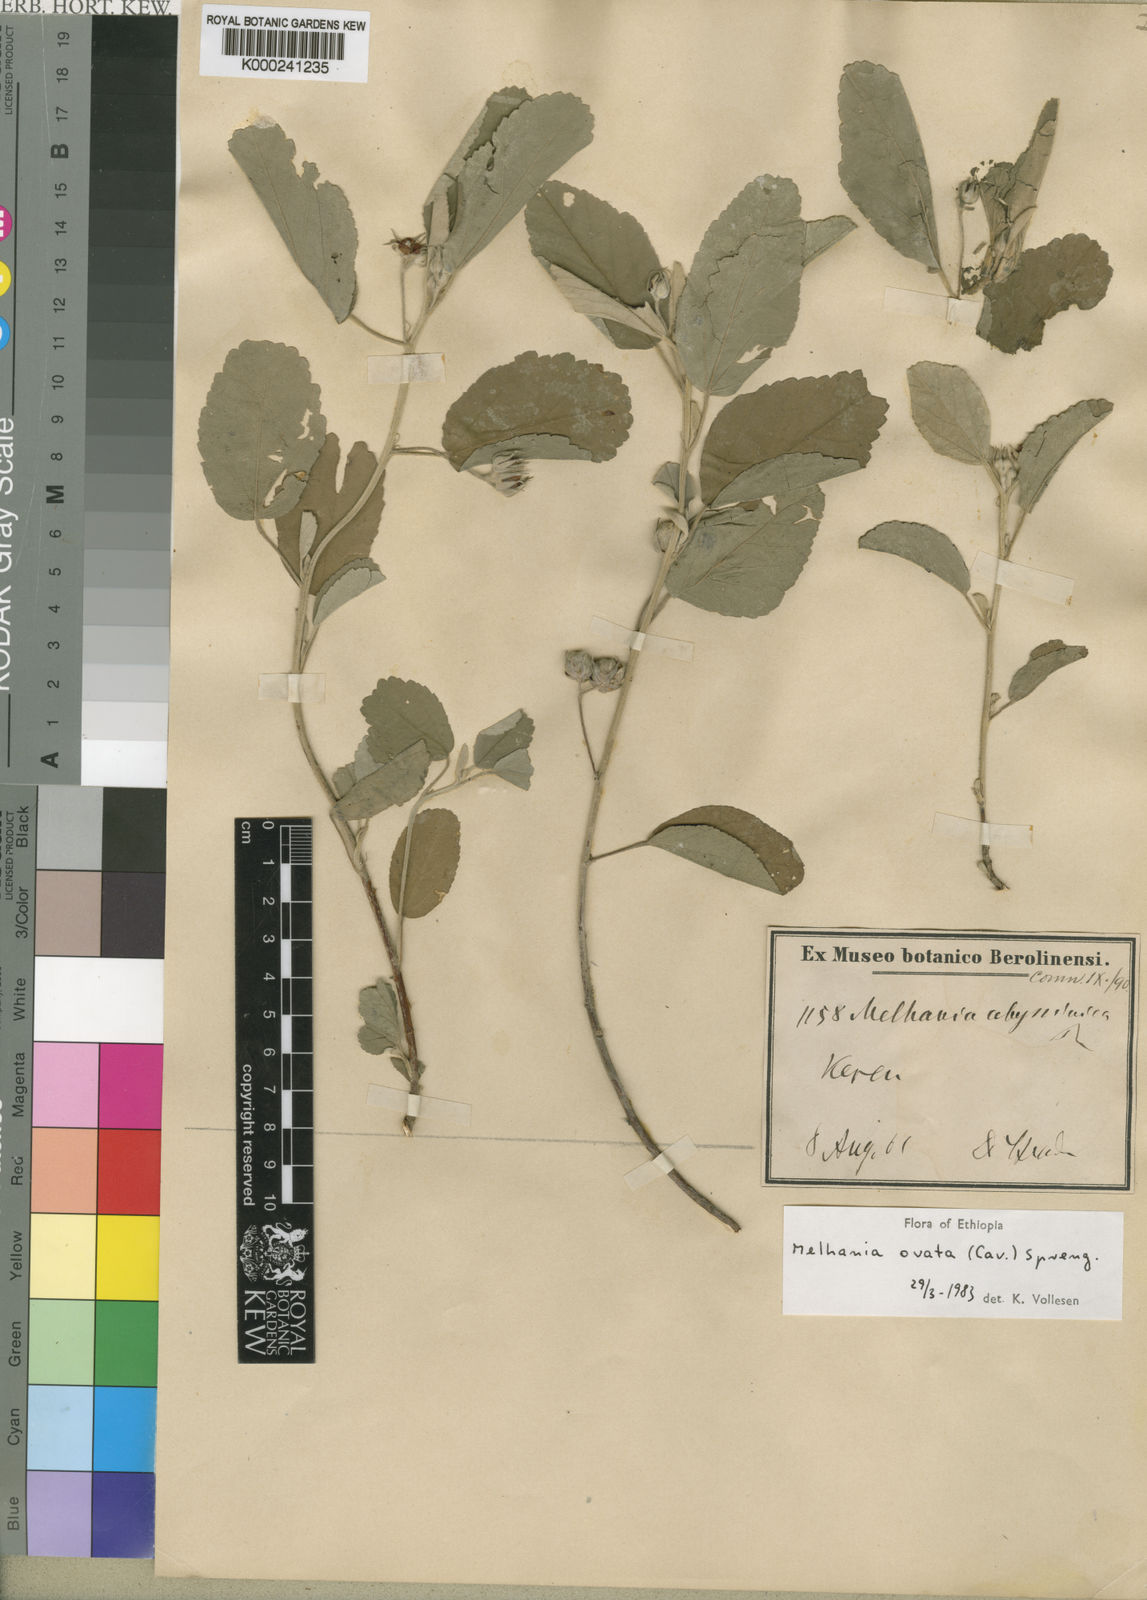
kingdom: Plantae
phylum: Tracheophyta
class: Magnoliopsida
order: Malvales
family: Malvaceae
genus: Melhania
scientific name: Melhania ovata
